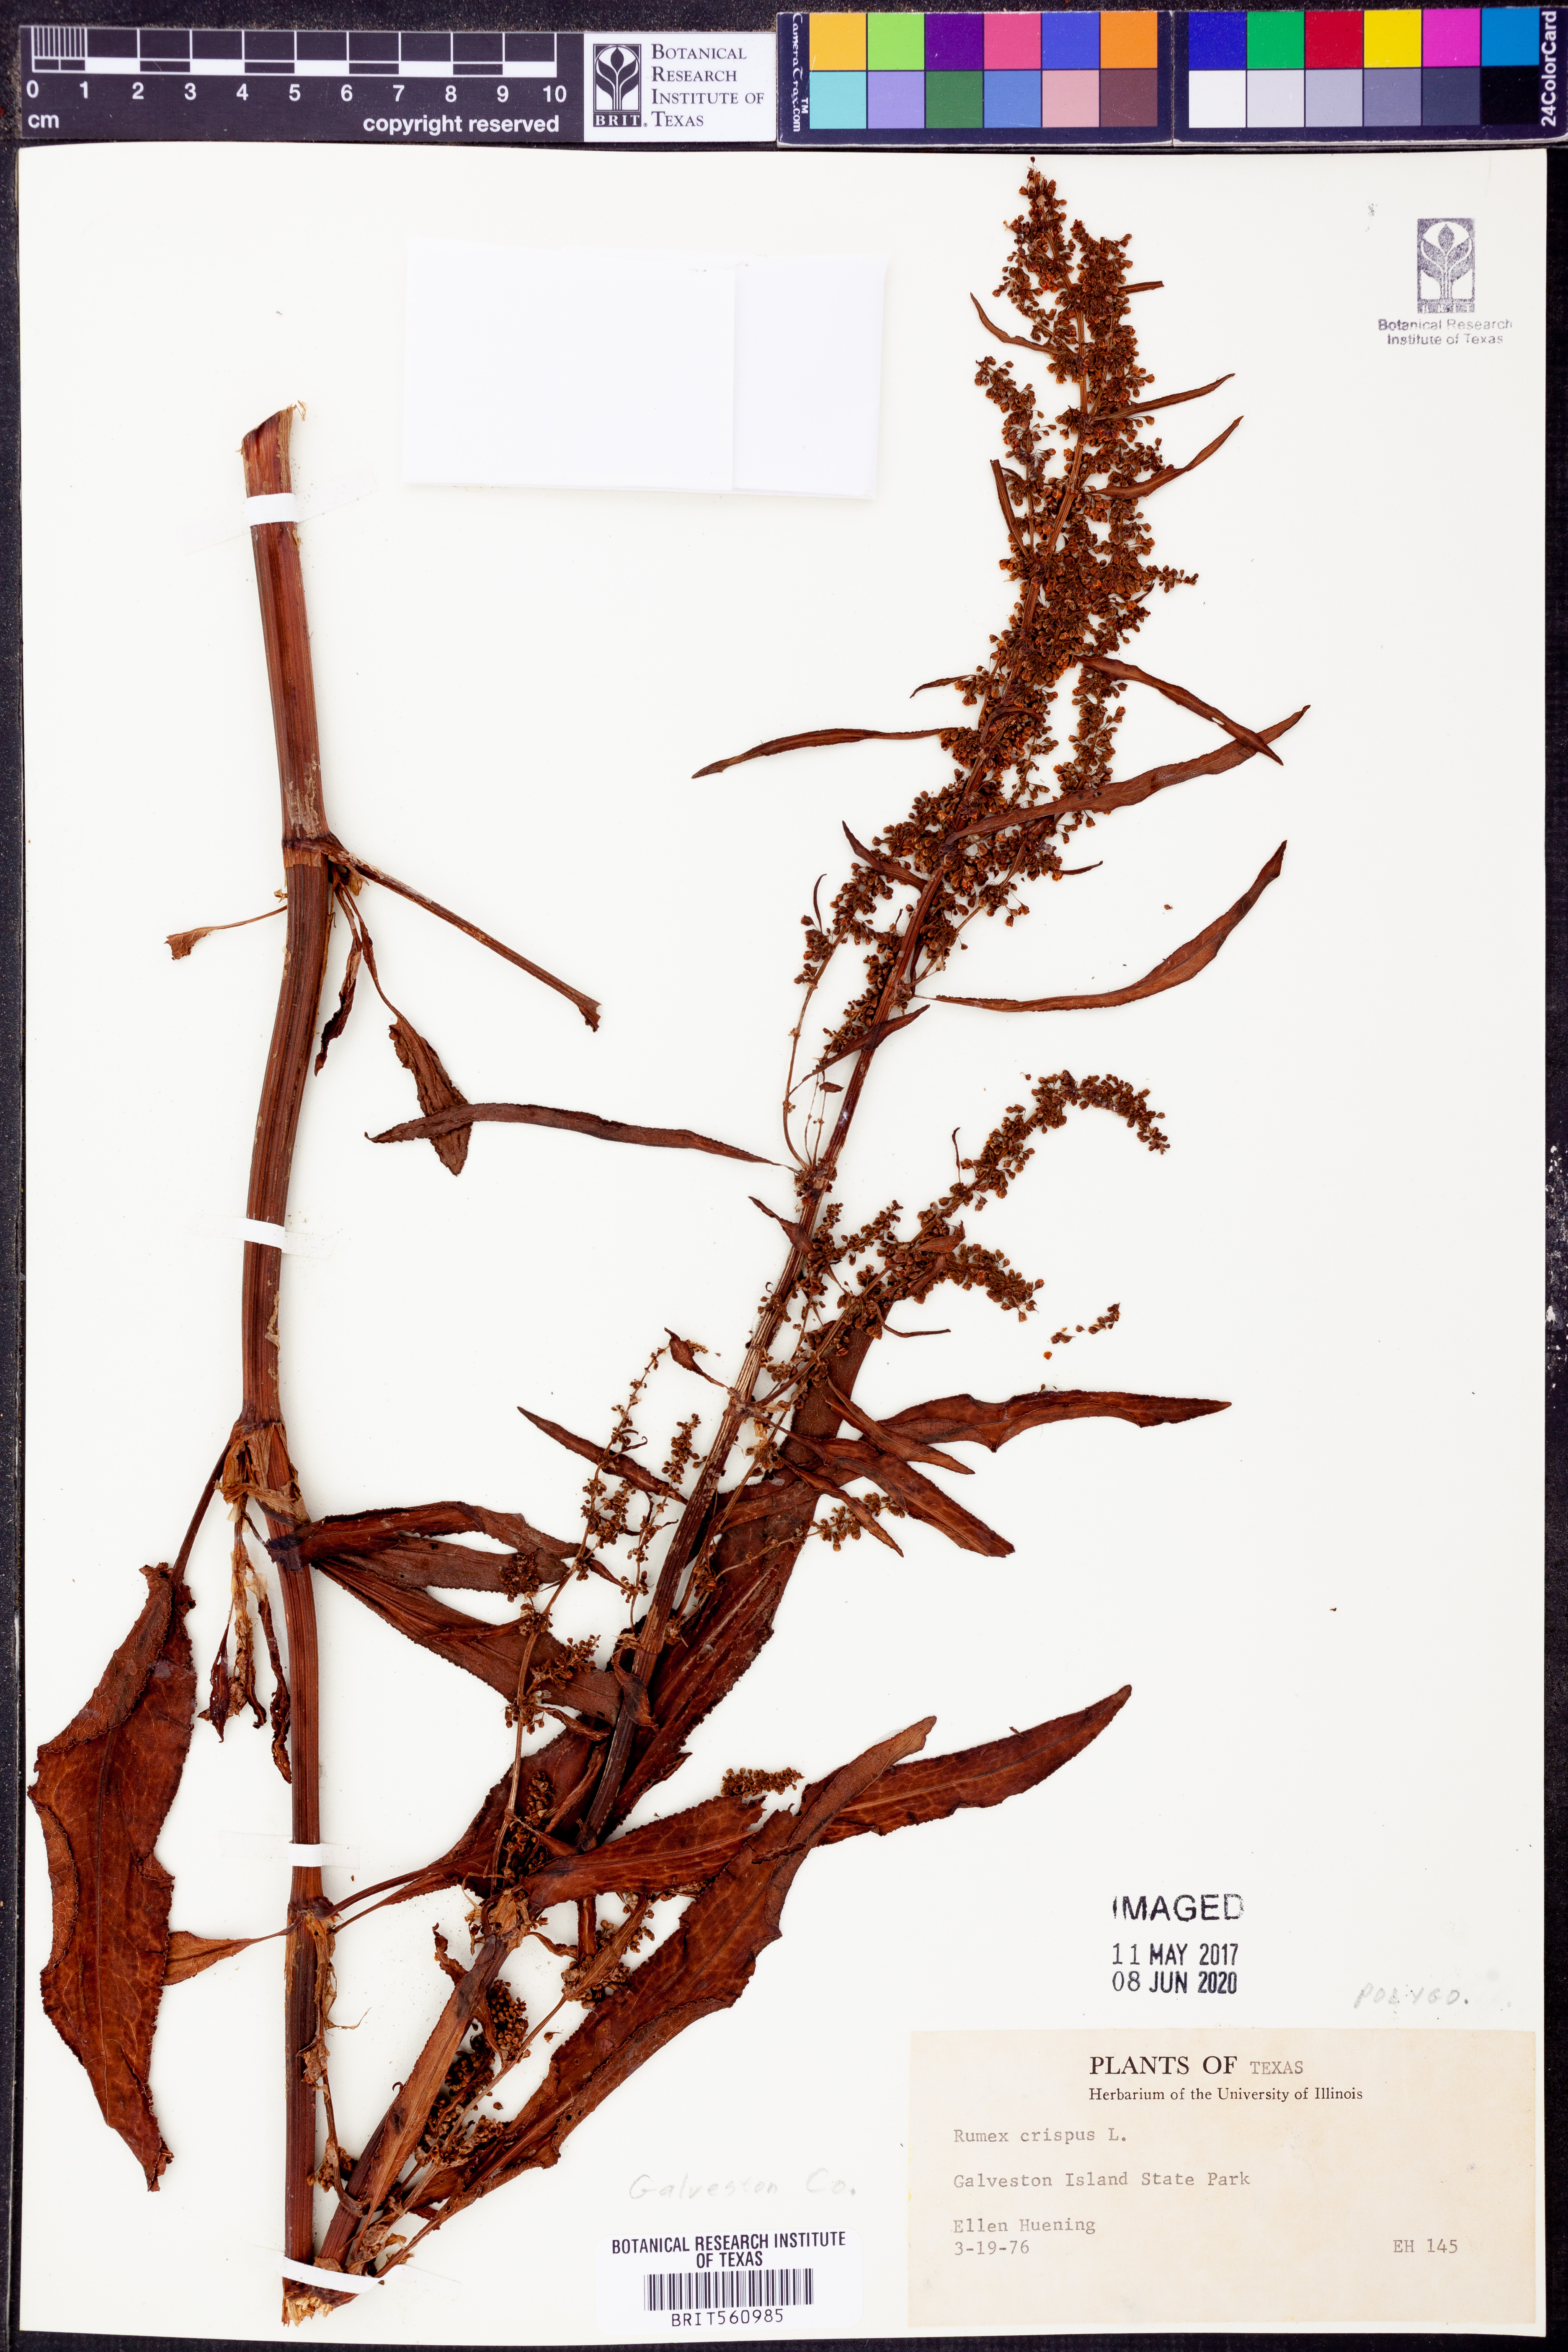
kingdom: Plantae
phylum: Tracheophyta
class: Magnoliopsida
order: Caryophyllales
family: Polygonaceae
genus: Rumex
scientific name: Rumex crispus
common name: Curled dock
